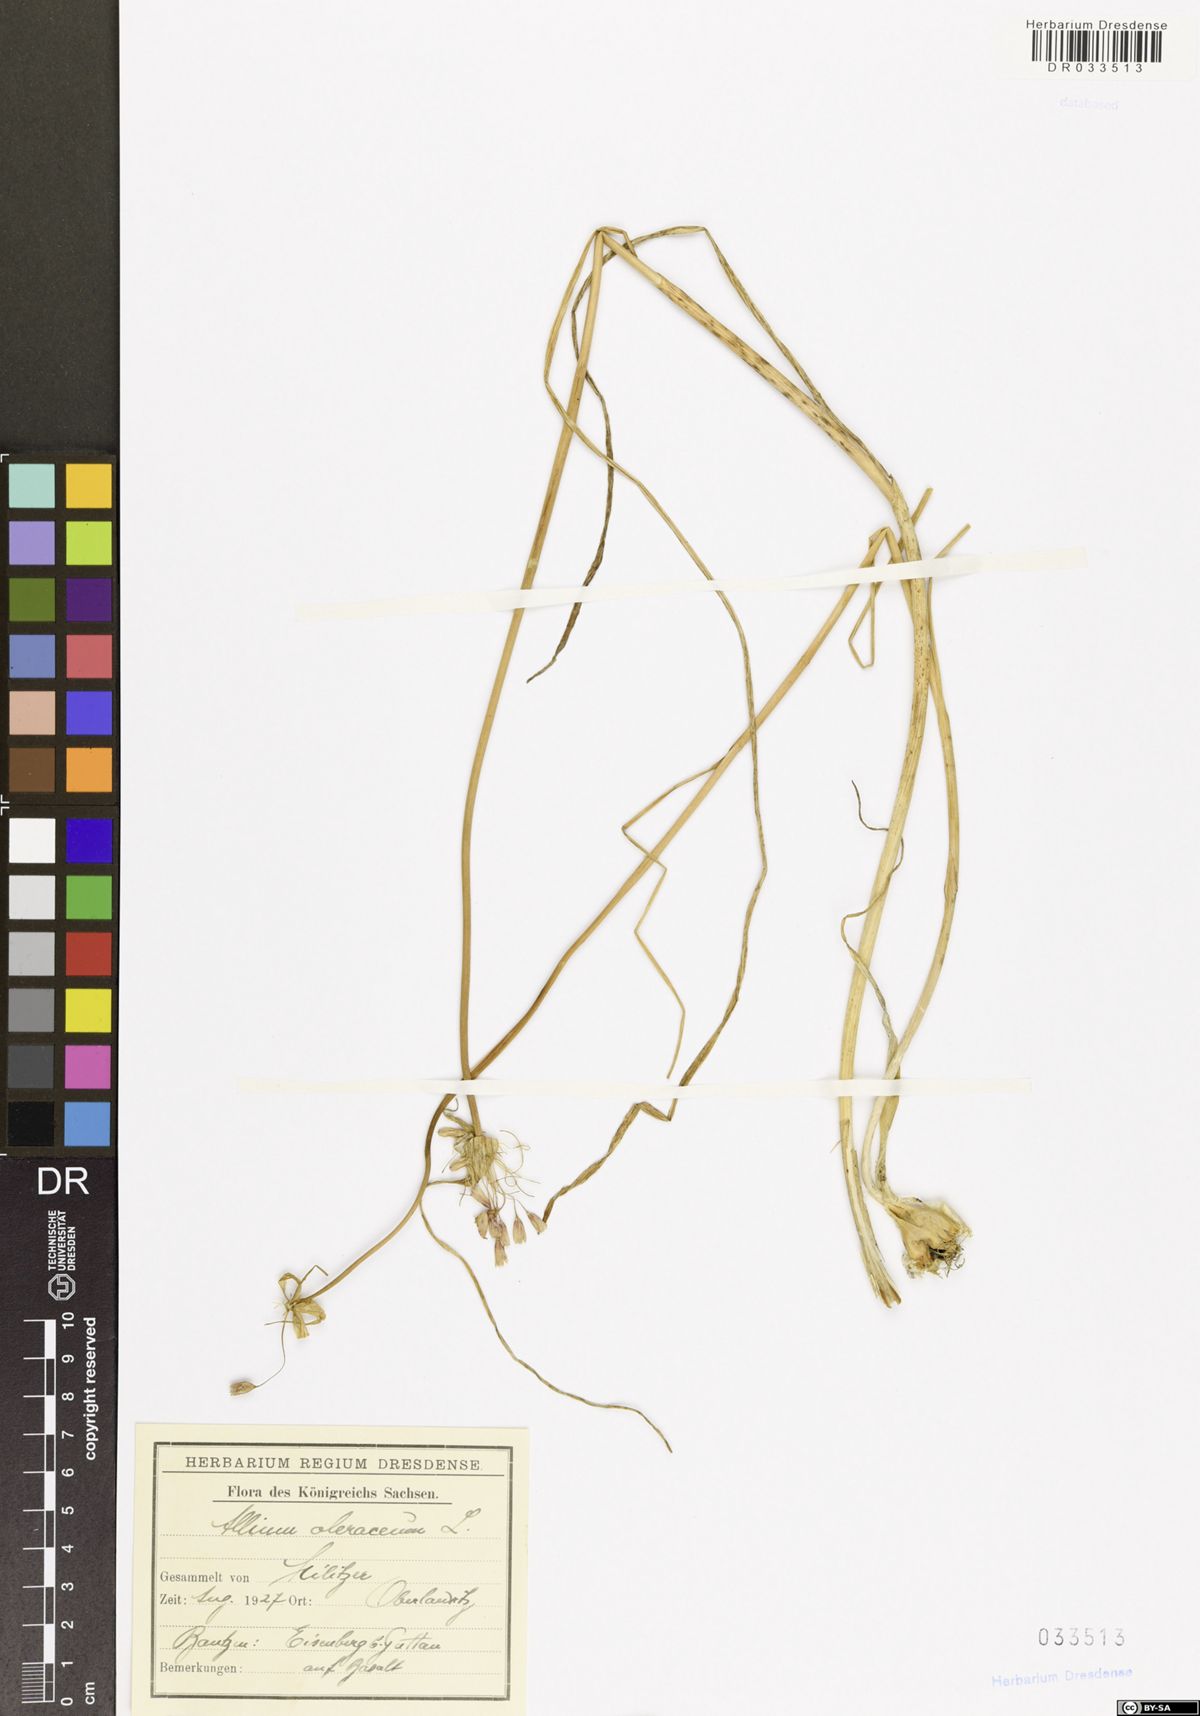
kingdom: Plantae
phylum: Tracheophyta
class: Liliopsida
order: Asparagales
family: Amaryllidaceae
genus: Allium
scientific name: Allium oleraceum
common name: Field garlic
